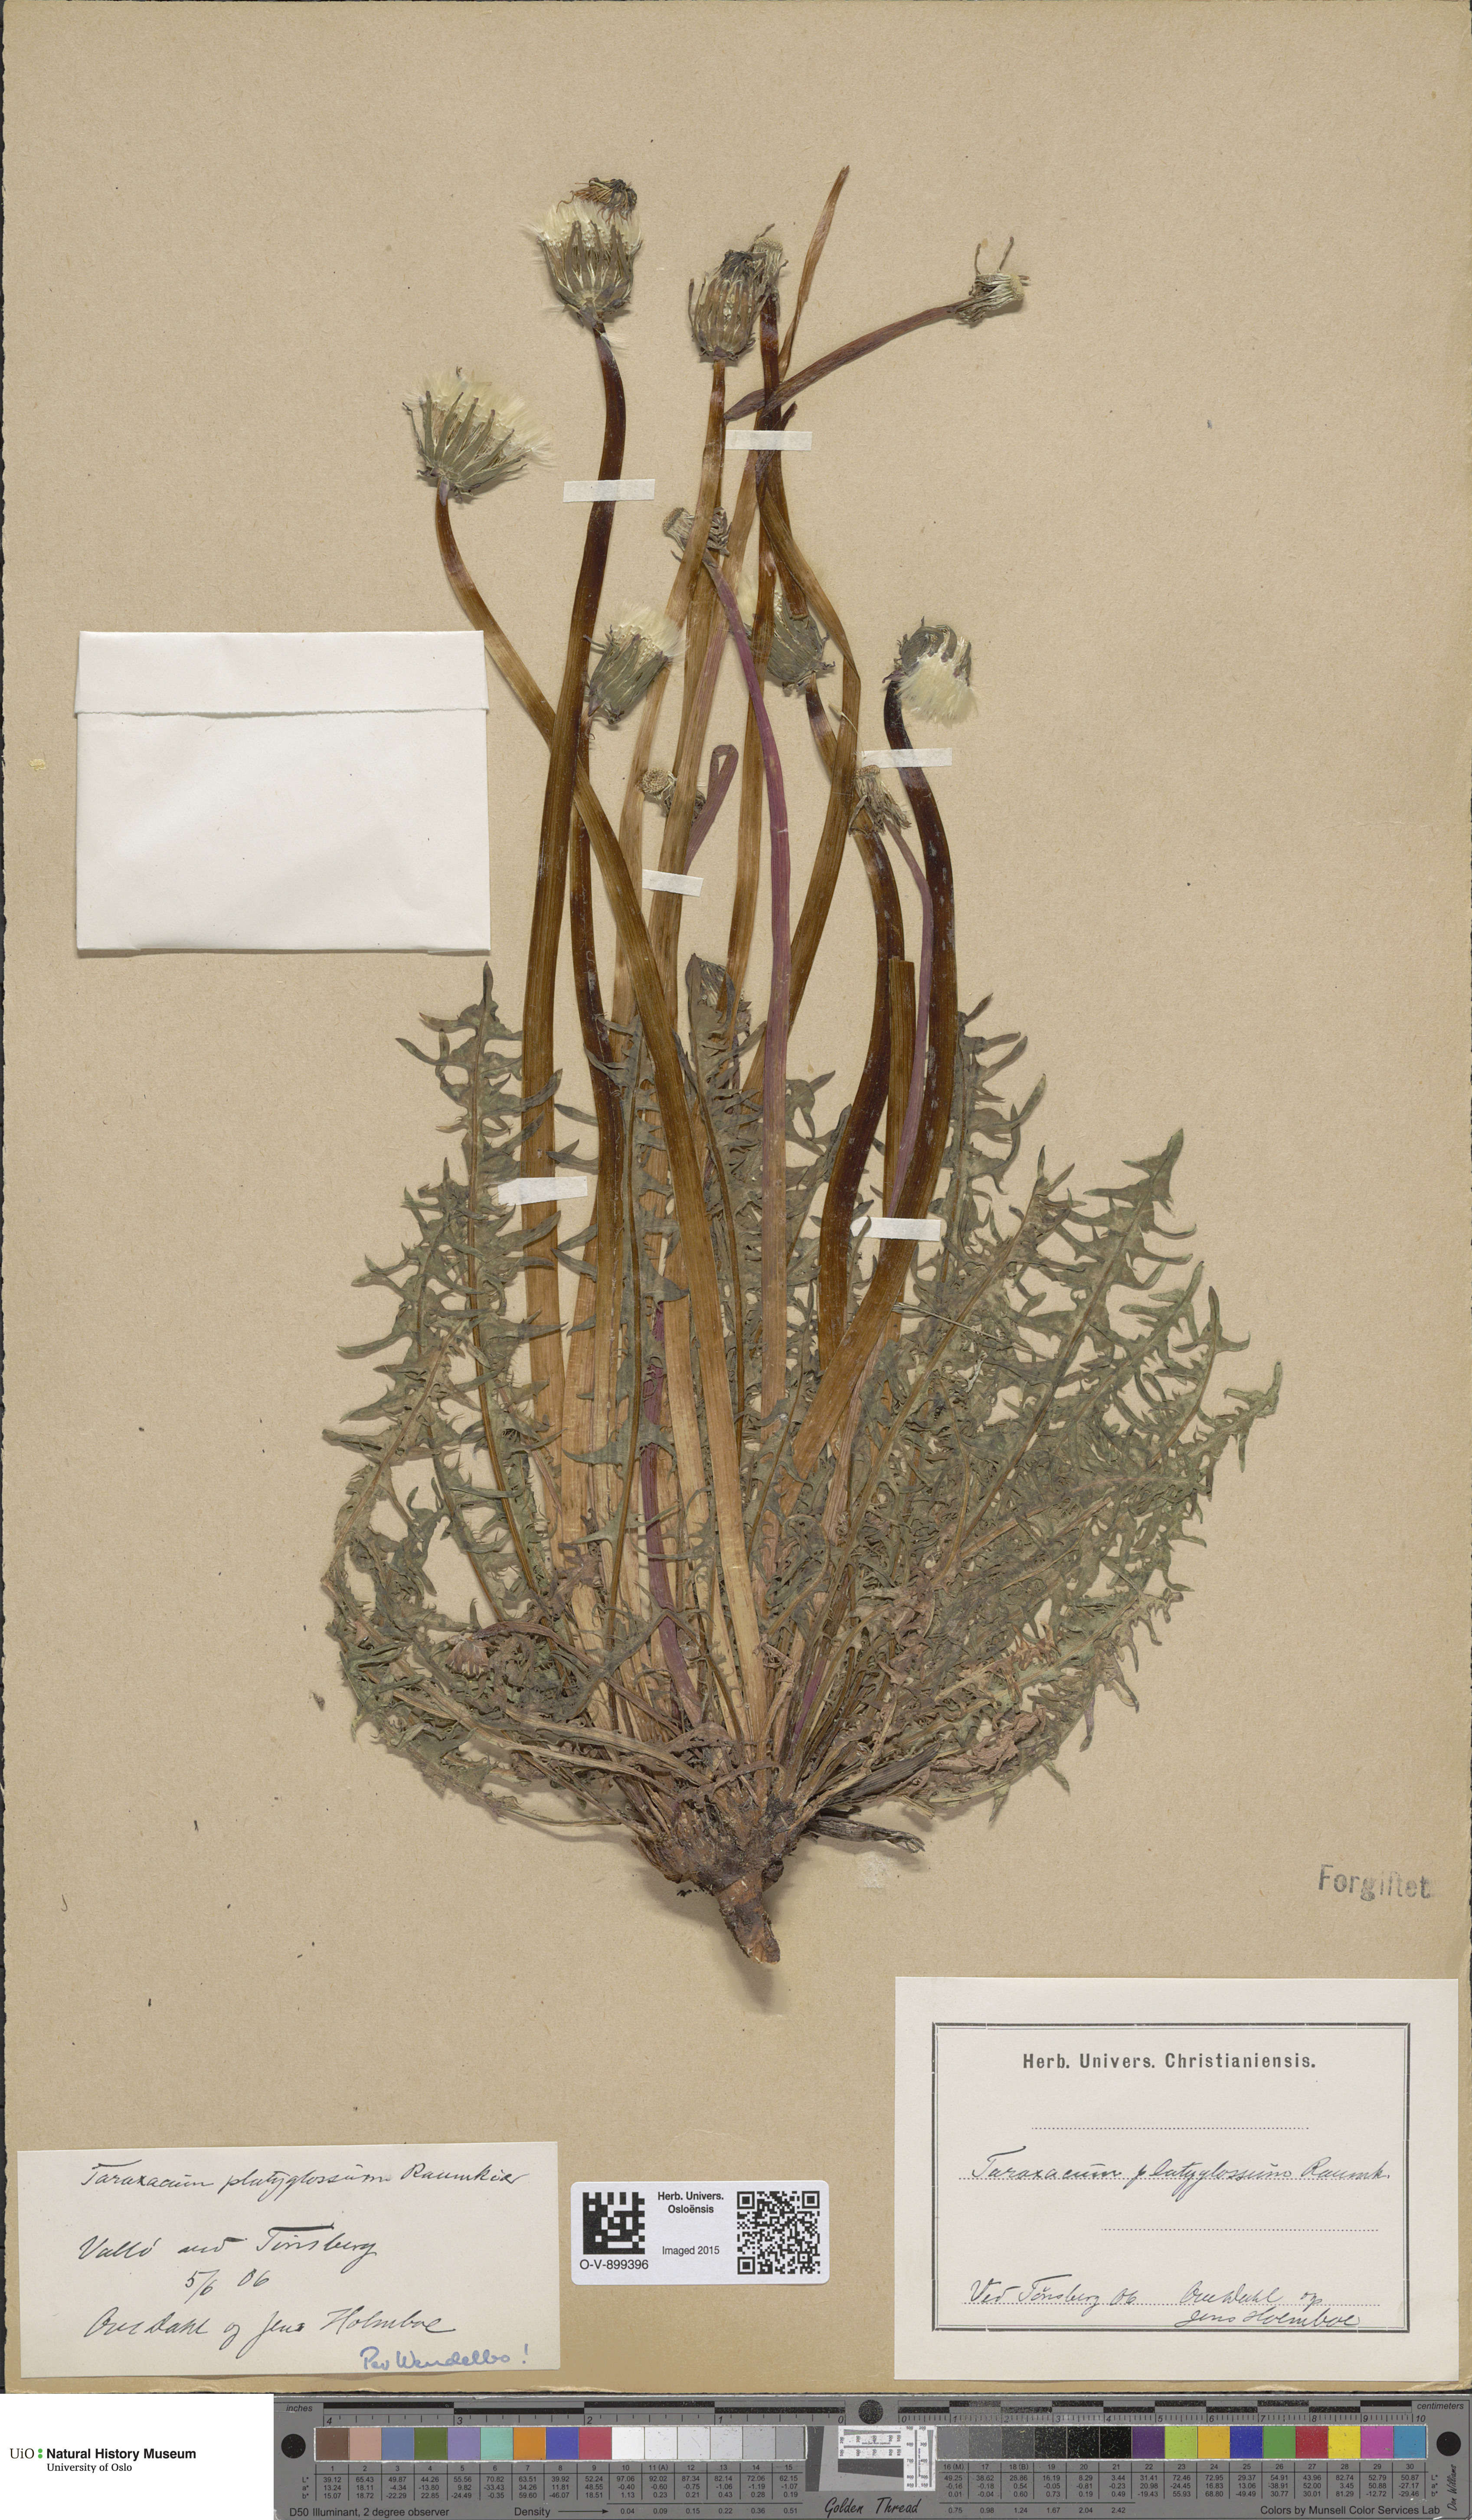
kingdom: Plantae
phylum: Tracheophyta
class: Magnoliopsida
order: Asterales
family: Asteraceae
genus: Taraxacum
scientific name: Taraxacum platyglossum
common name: Tongue-leaved dandelion
